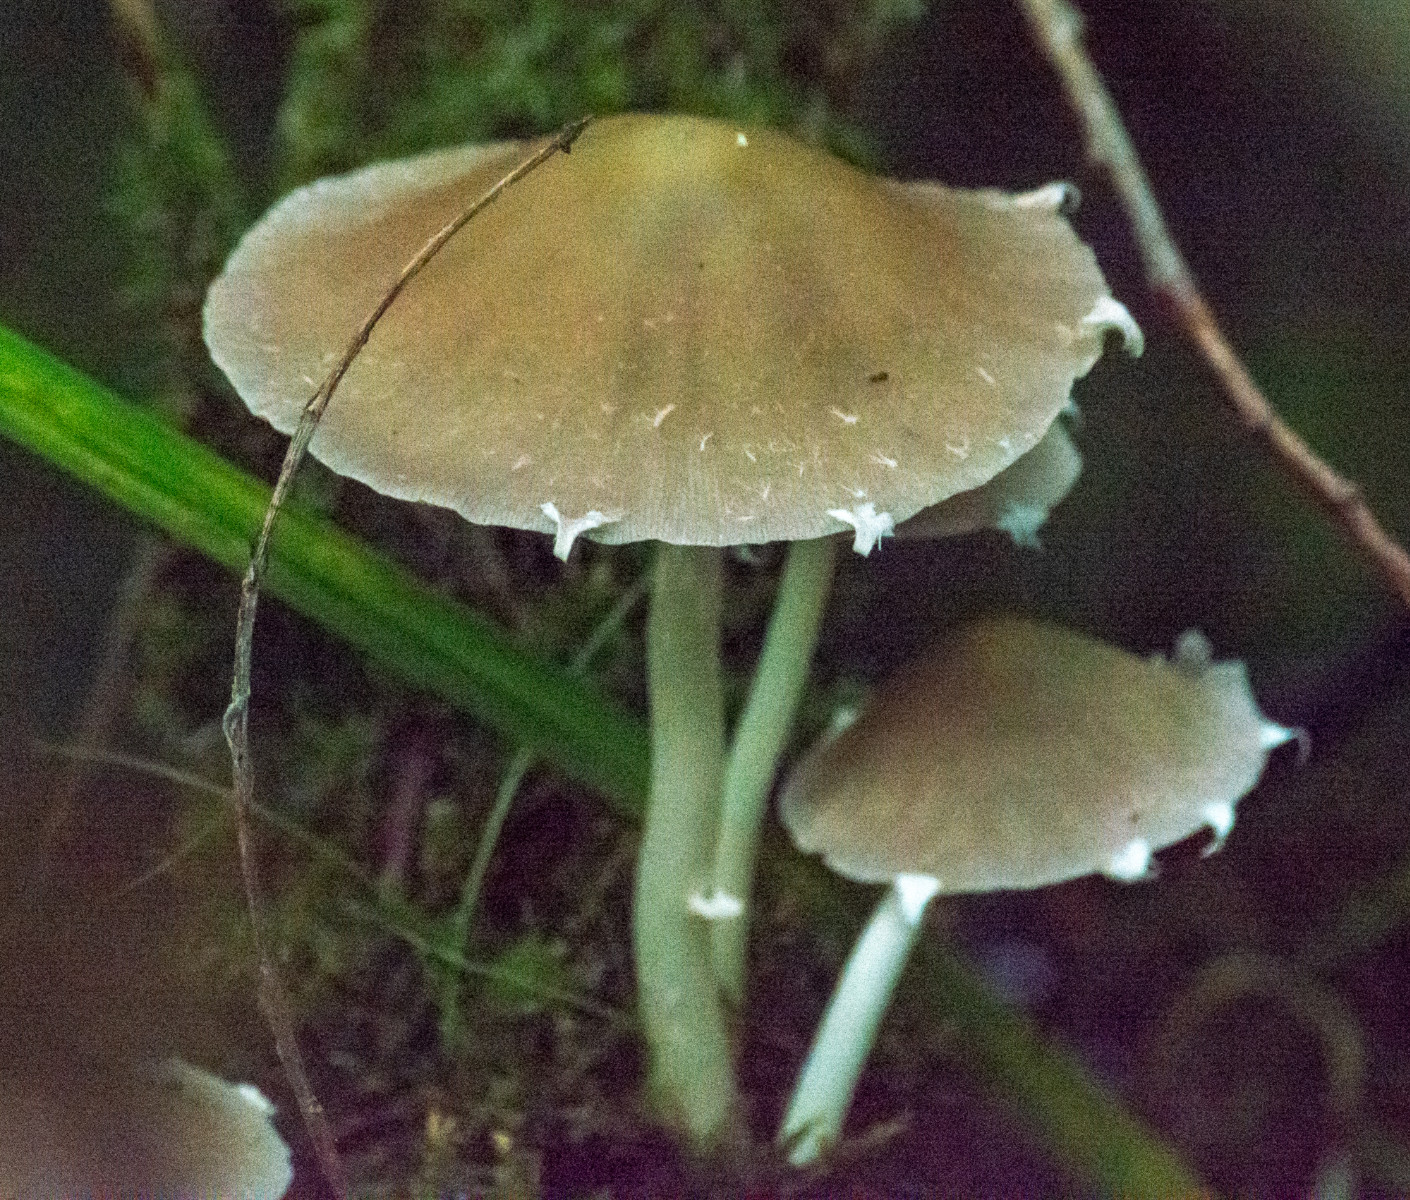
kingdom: Fungi
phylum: Basidiomycota
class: Agaricomycetes
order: Agaricales
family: Psathyrellaceae
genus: Candolleomyces
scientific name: Candolleomyces candolleanus
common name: Candolles mørkhat
